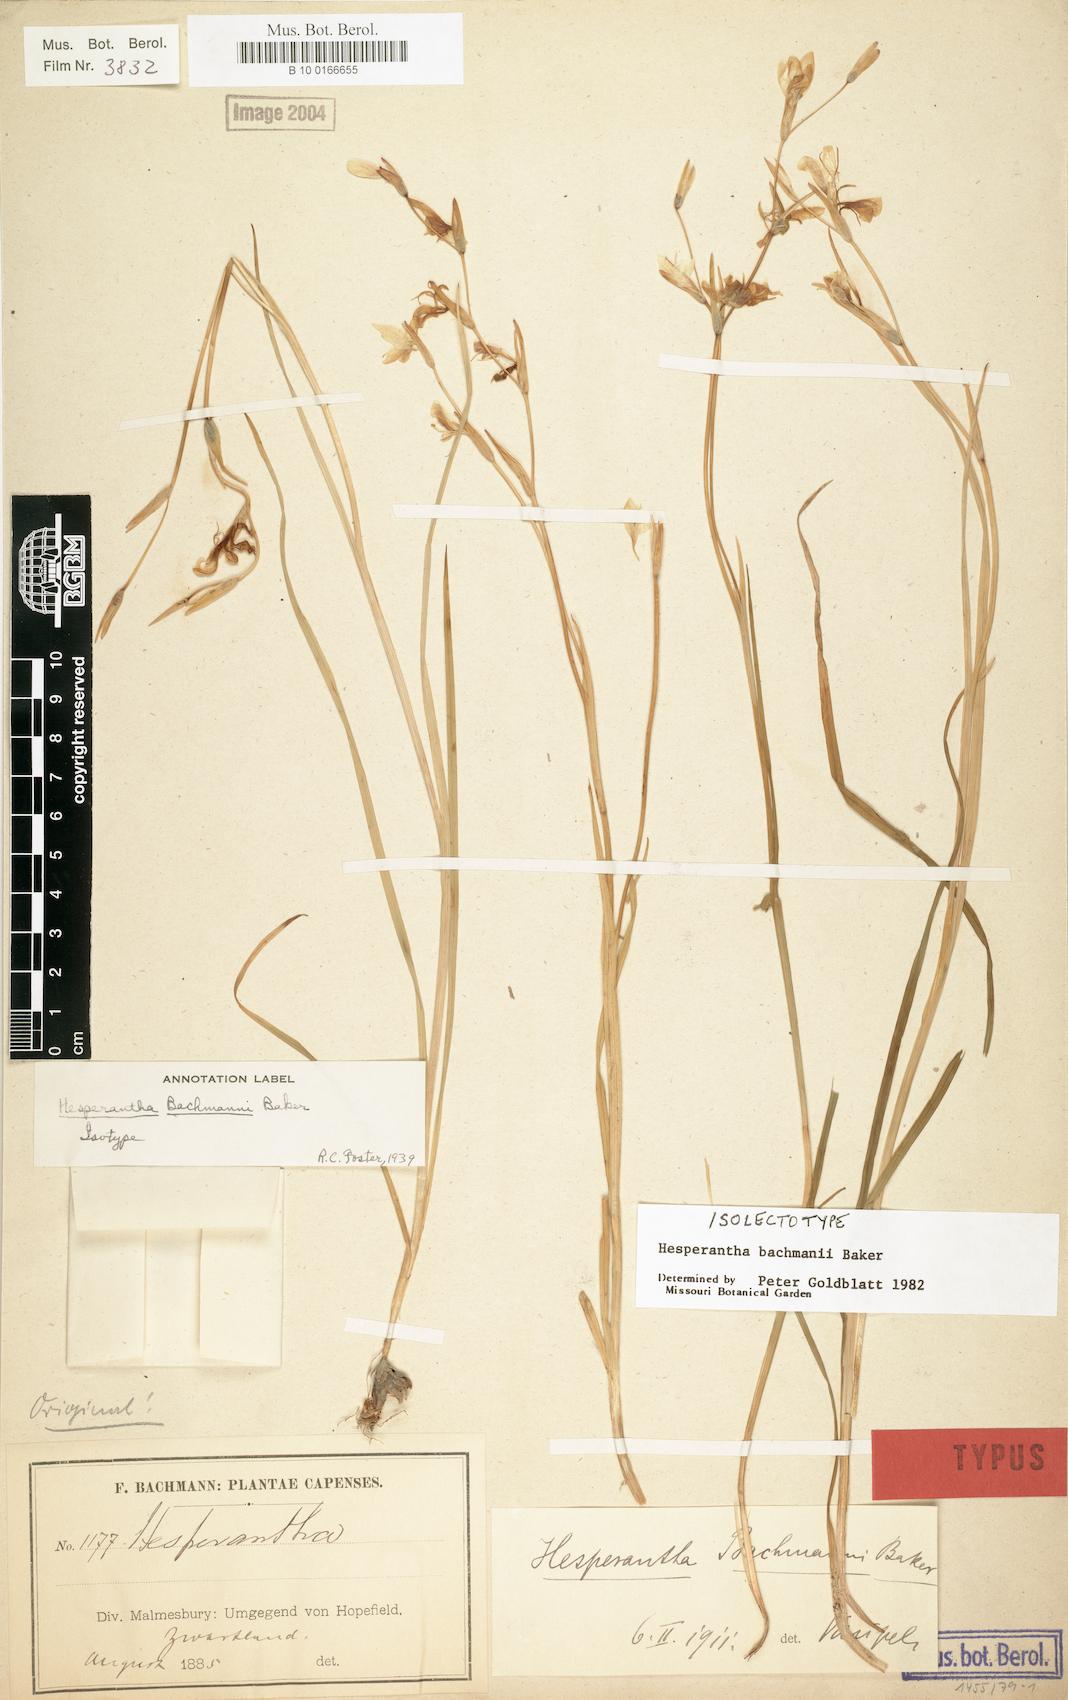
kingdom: Plantae
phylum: Tracheophyta
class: Liliopsida
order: Asparagales
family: Iridaceae
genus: Hesperantha
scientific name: Hesperantha bachmannii
